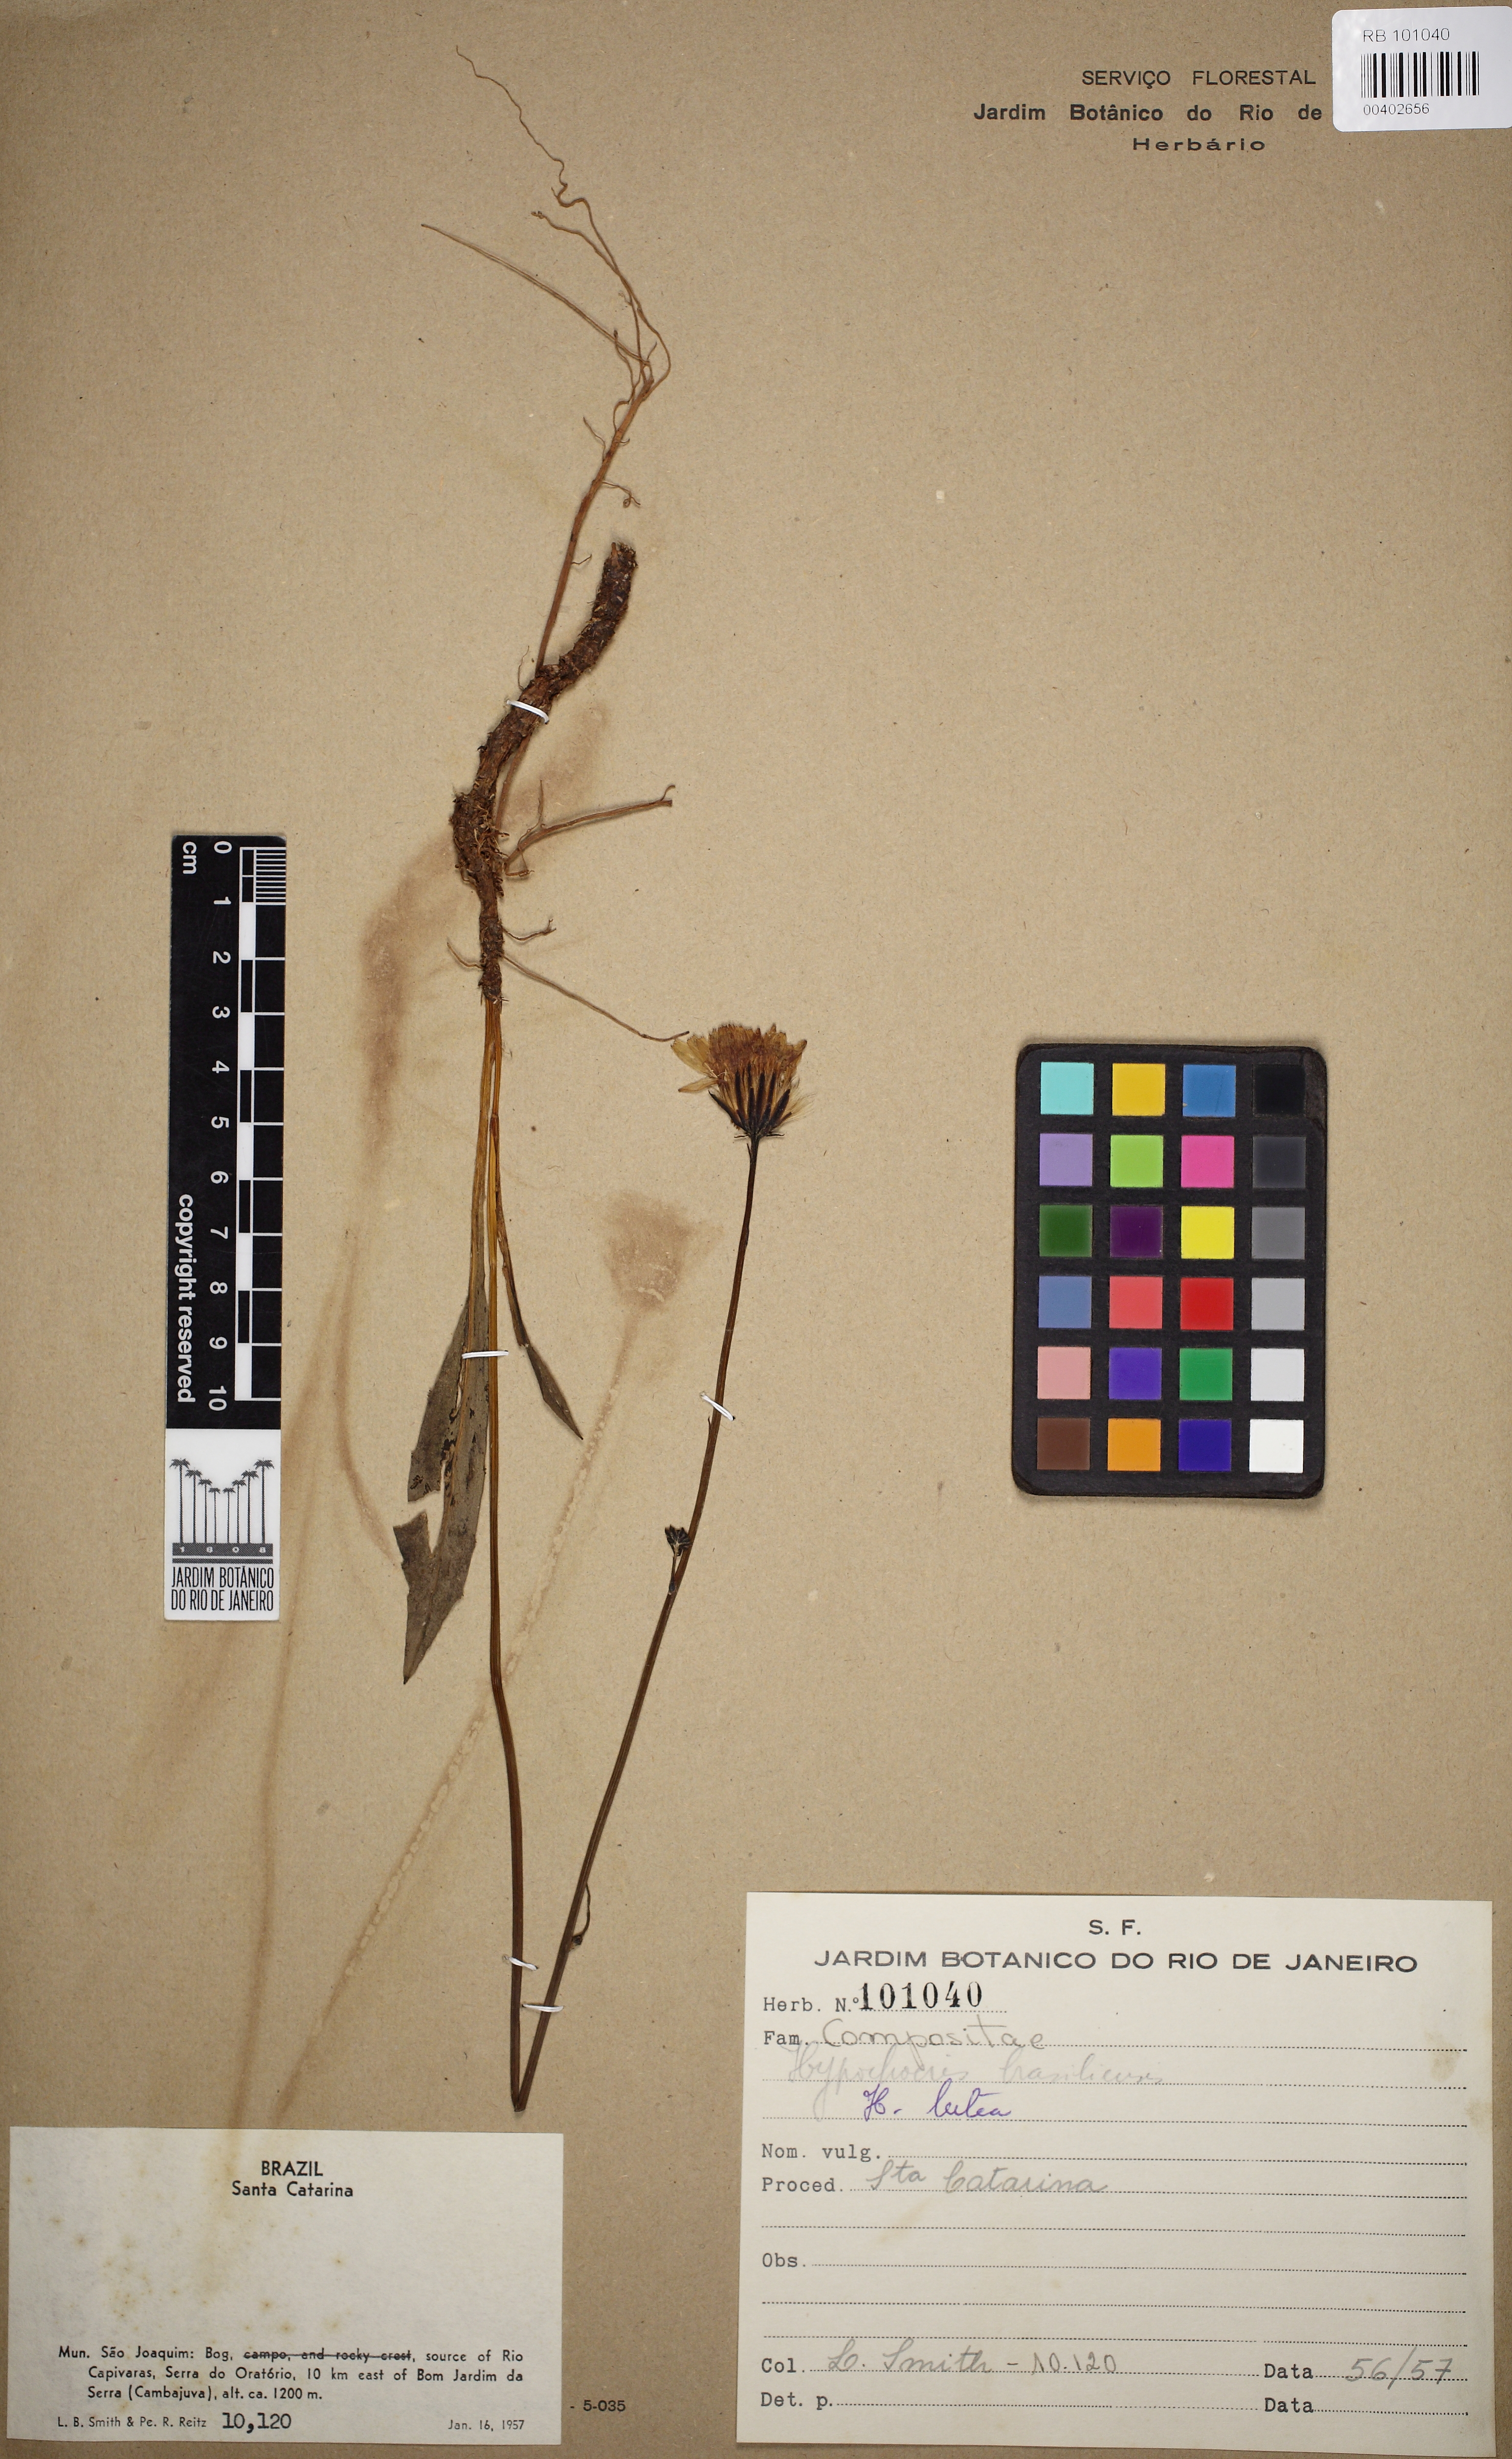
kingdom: Plantae
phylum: Tracheophyta
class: Magnoliopsida
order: Asterales
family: Asteraceae
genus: Hypochaeris
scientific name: Hypochaeris lutea
